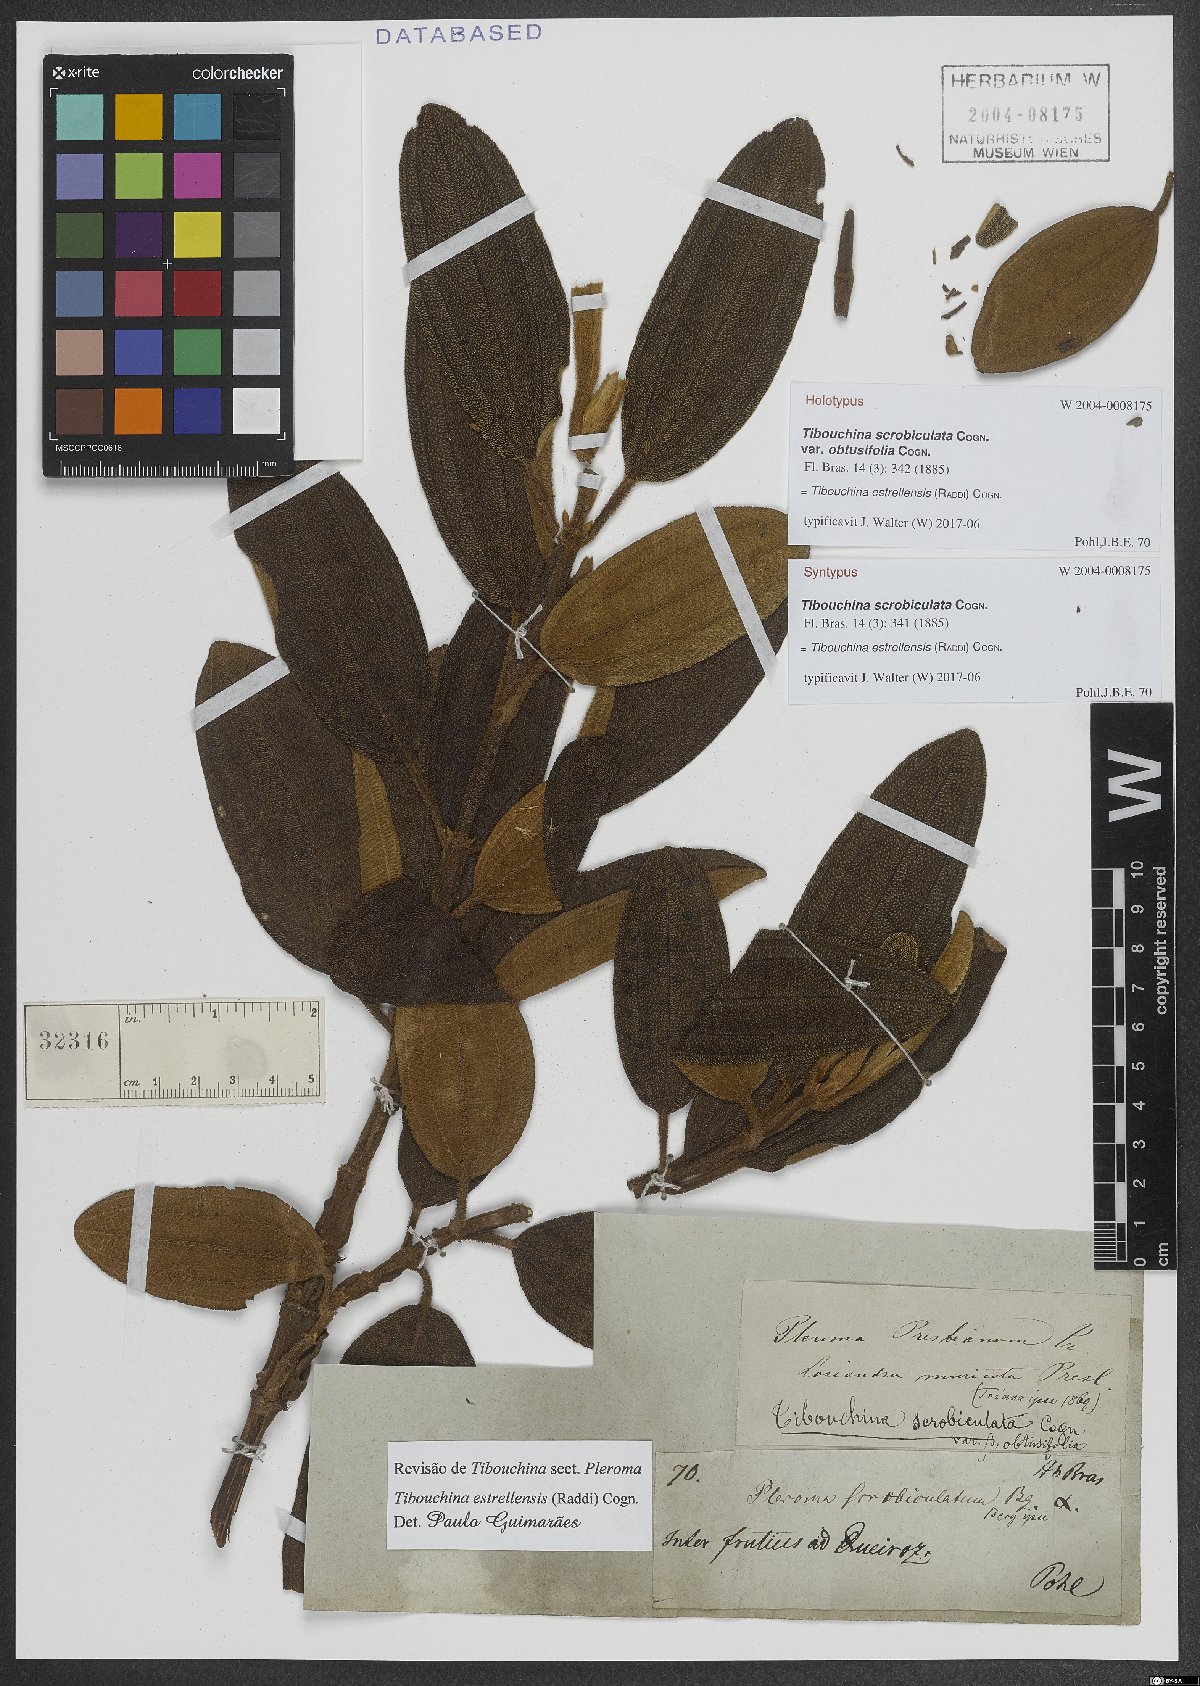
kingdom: Plantae
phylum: Tracheophyta
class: Magnoliopsida
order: Myrtales
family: Melastomataceae
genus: Pleroma
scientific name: Pleroma estrellense
